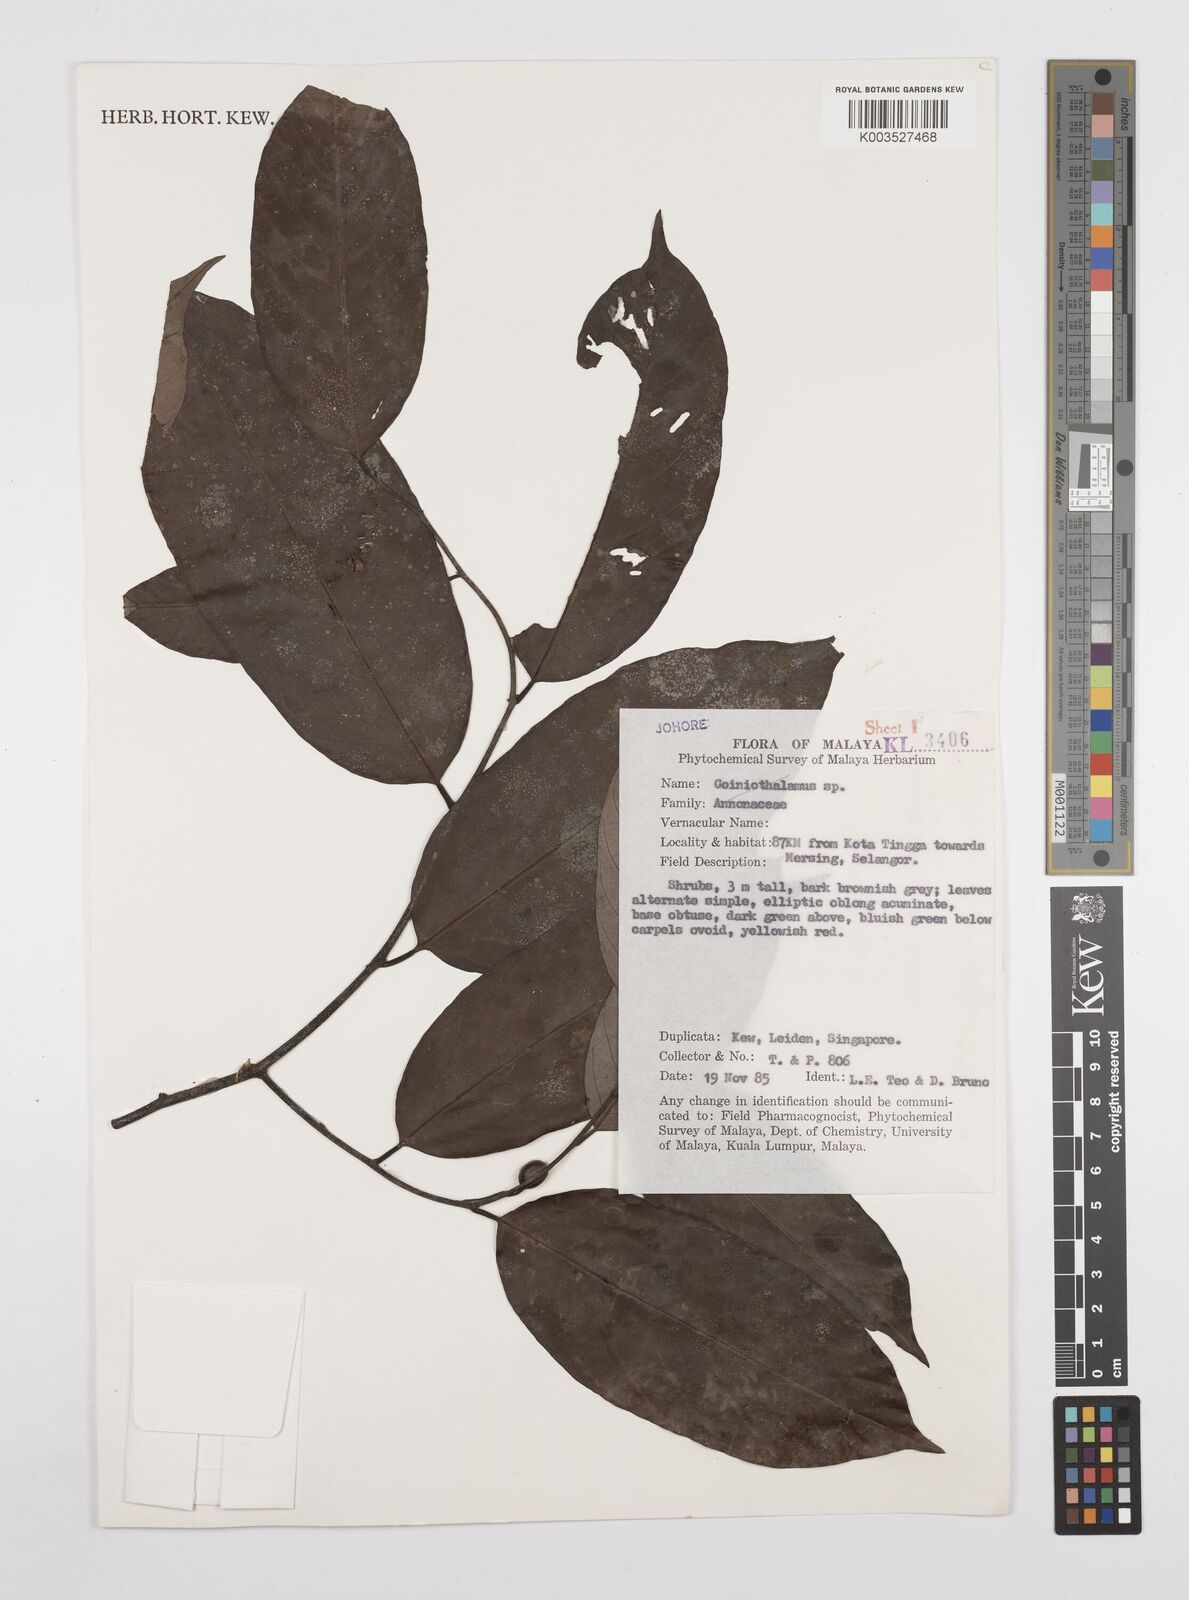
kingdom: Plantae
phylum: Tracheophyta
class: Magnoliopsida
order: Magnoliales
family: Annonaceae
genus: Desmos
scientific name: Desmos
